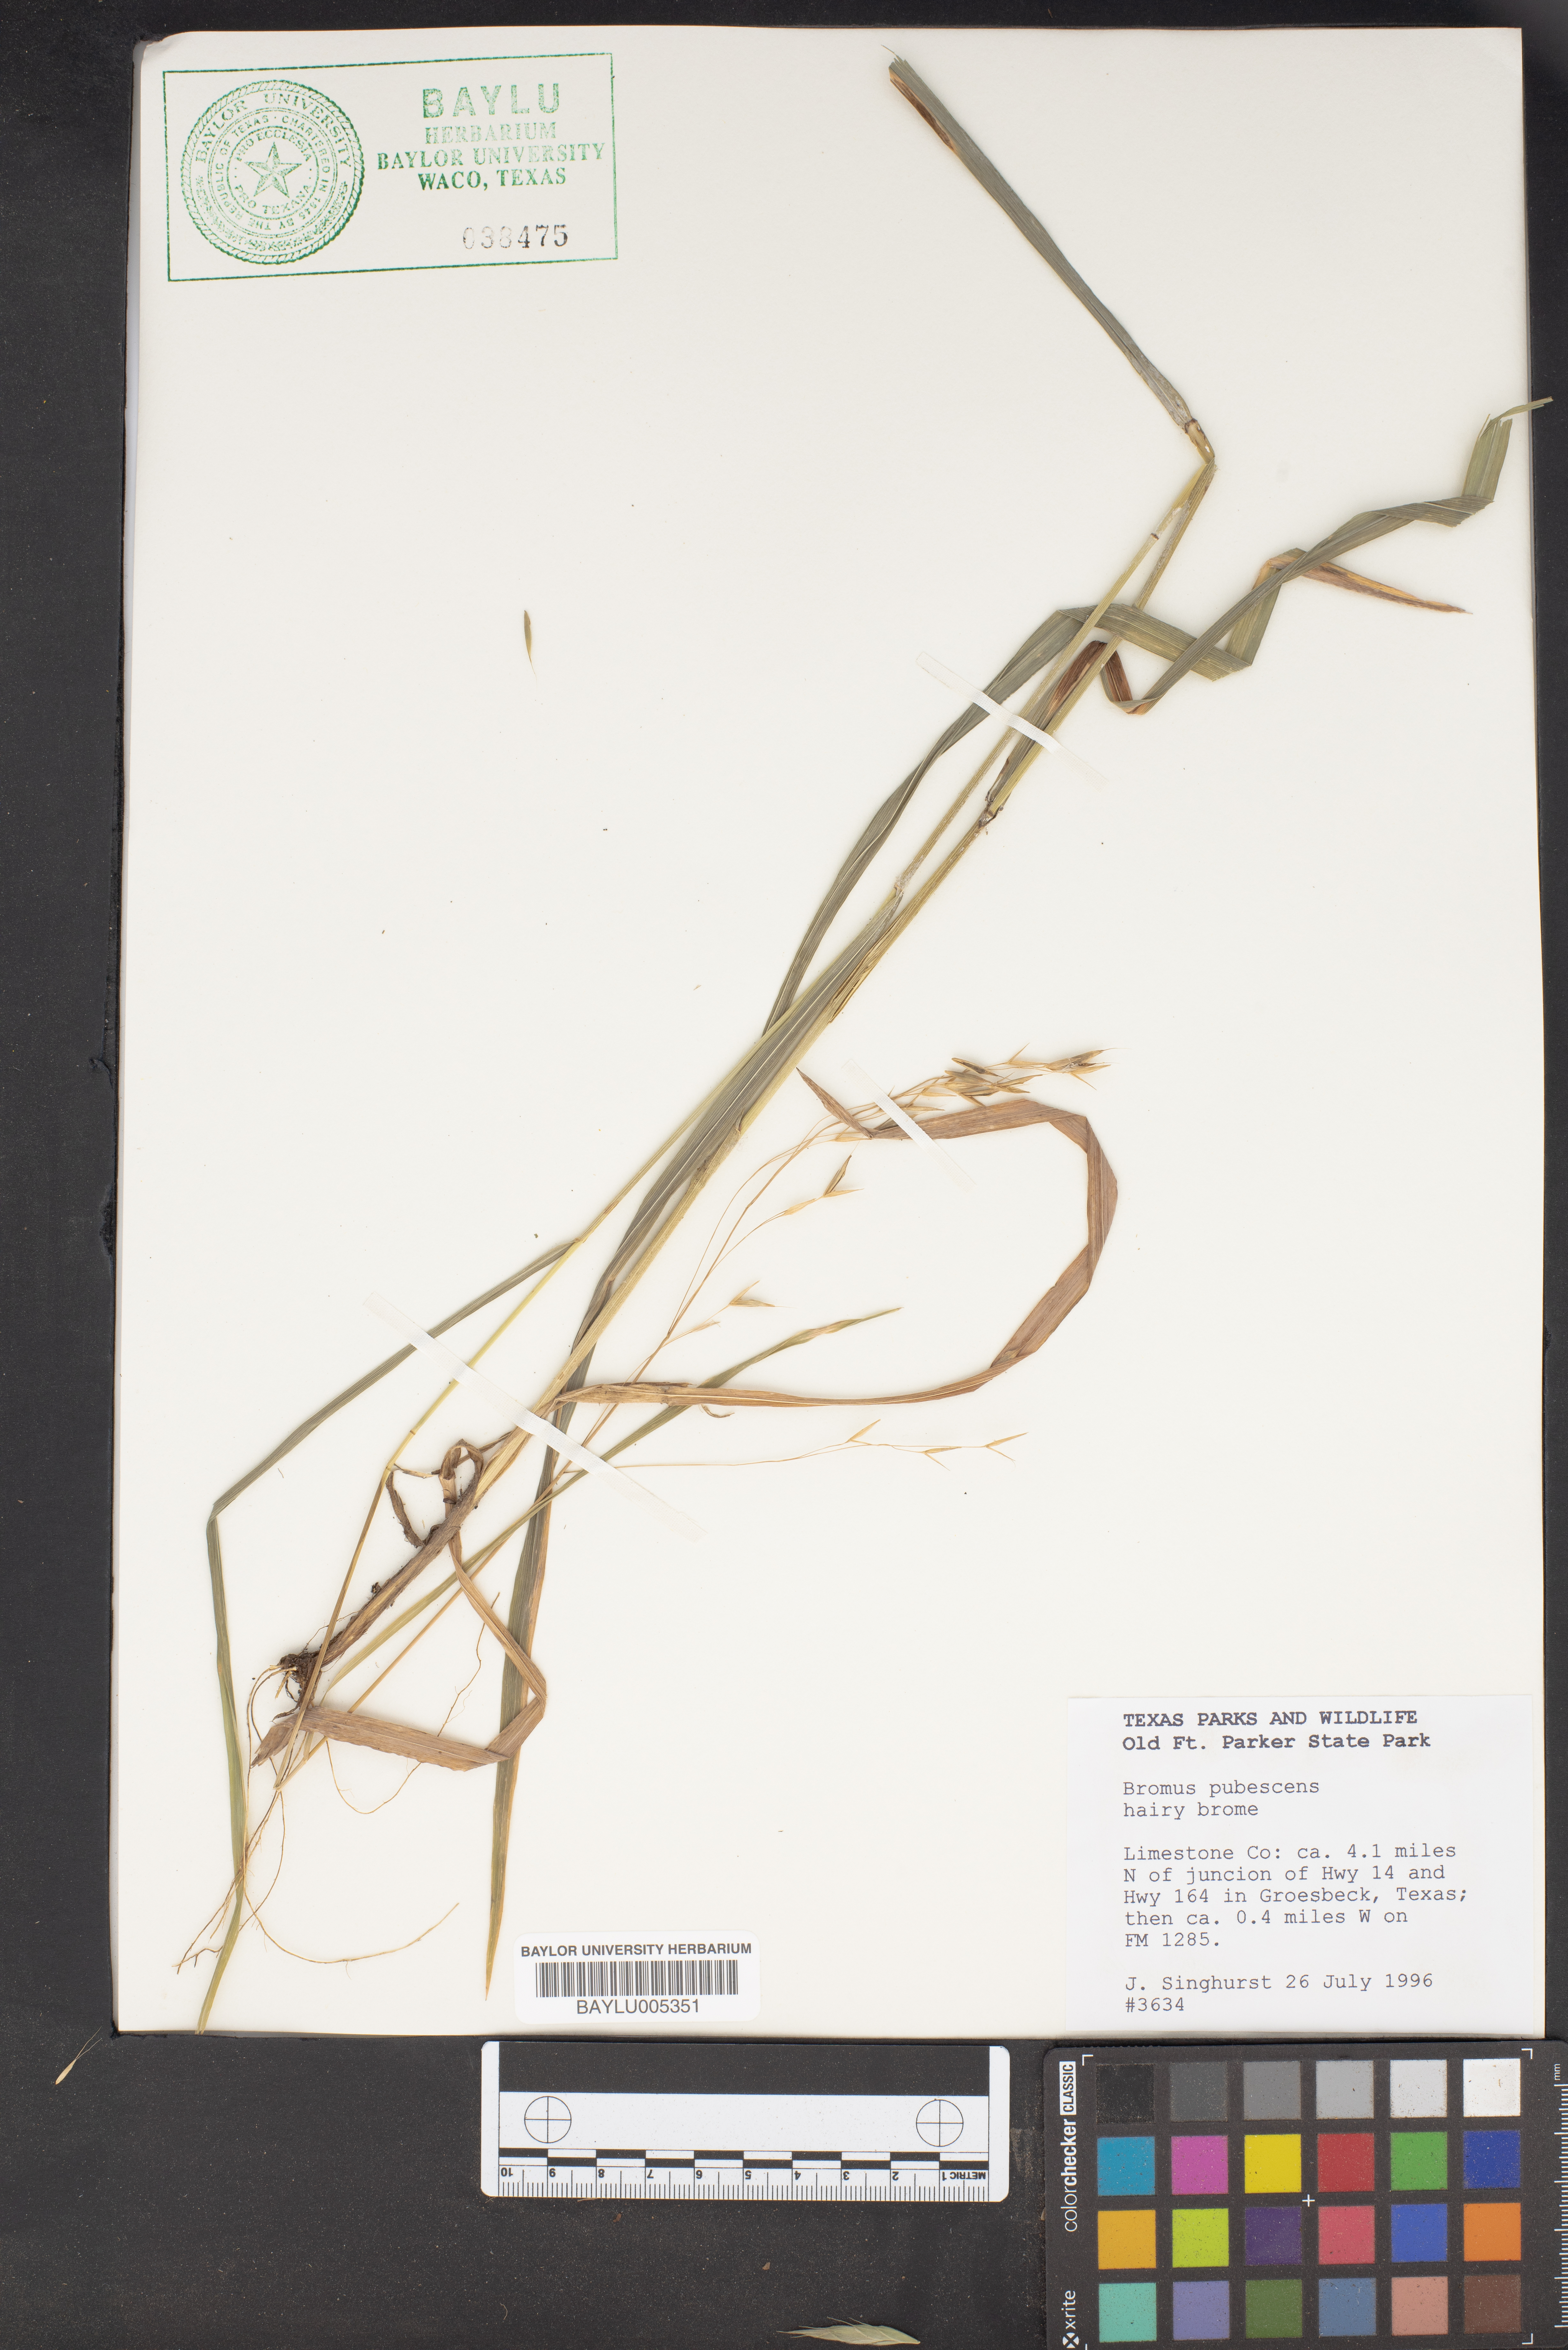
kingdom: Plantae
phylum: Tracheophyta
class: Liliopsida
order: Poales
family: Poaceae
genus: Bromus
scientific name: Bromus pubescens
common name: Hairy wood brome grass
